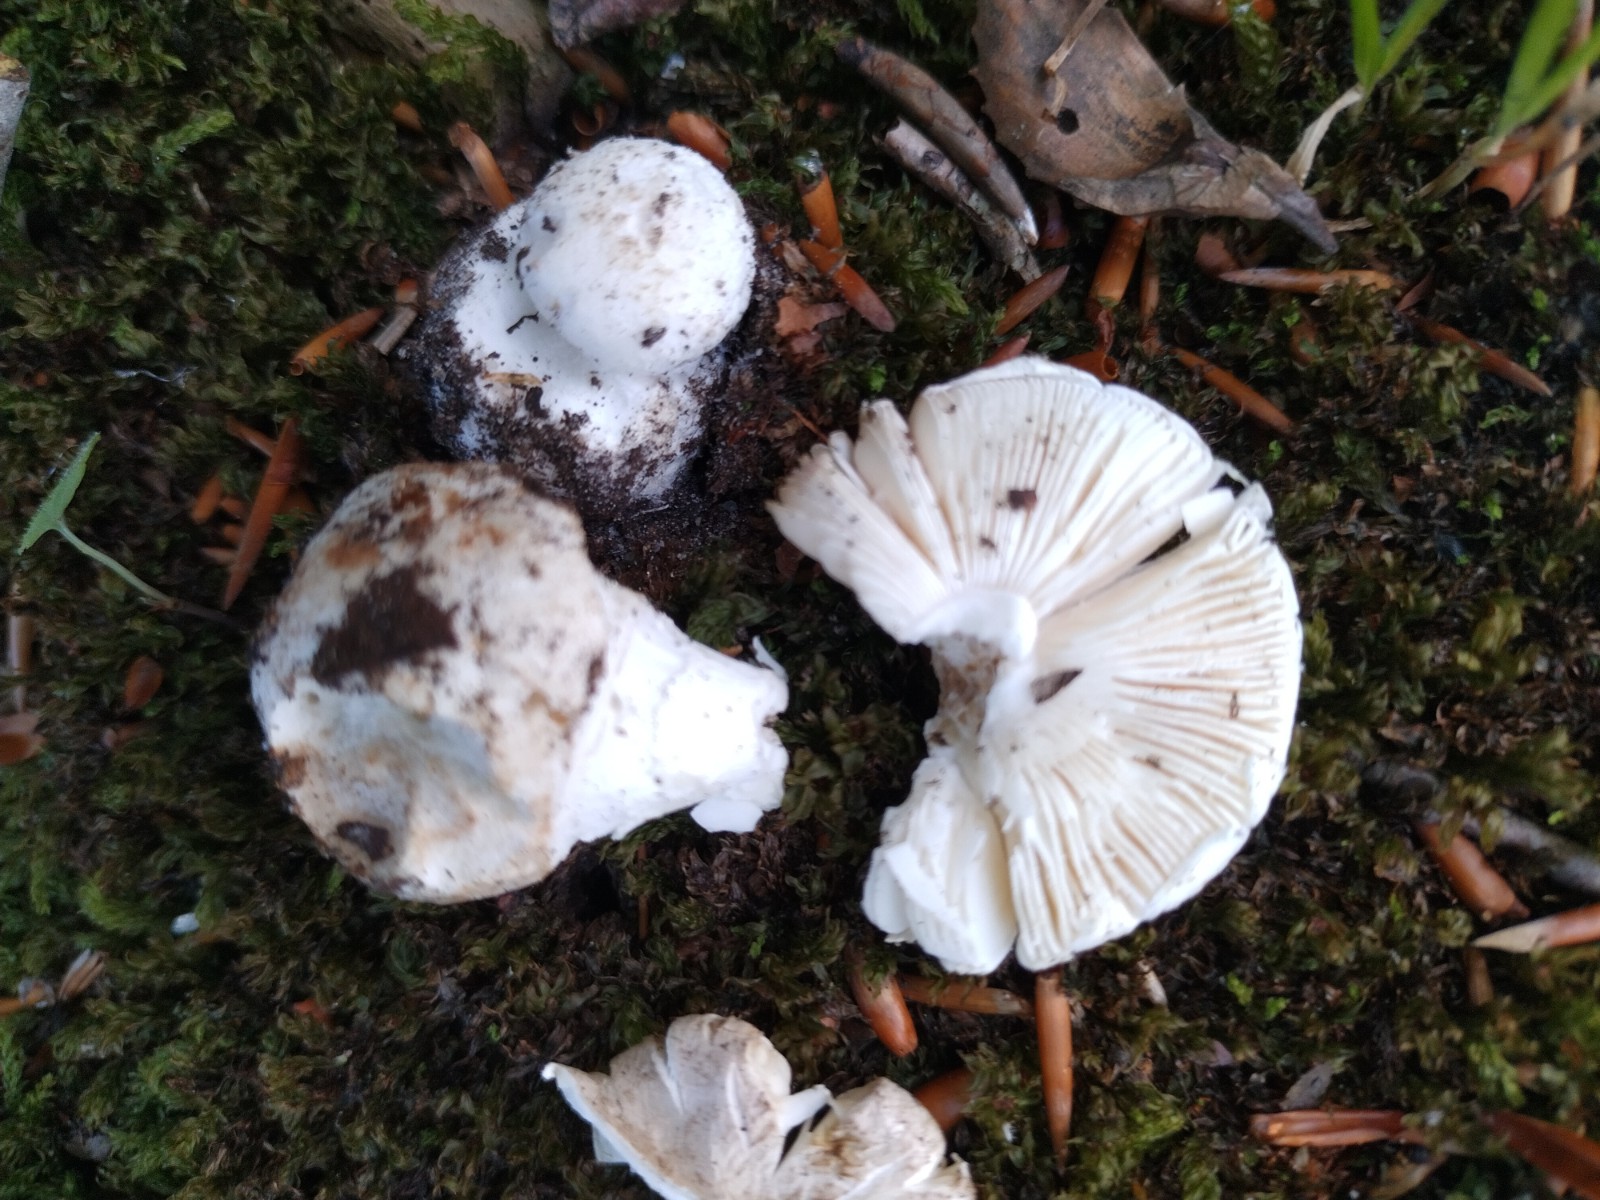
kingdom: Fungi
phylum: Basidiomycota
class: Agaricomycetes
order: Agaricales
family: Amanitaceae
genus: Amanita
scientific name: Amanita citrina
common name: kugleknoldet fluesvamp
